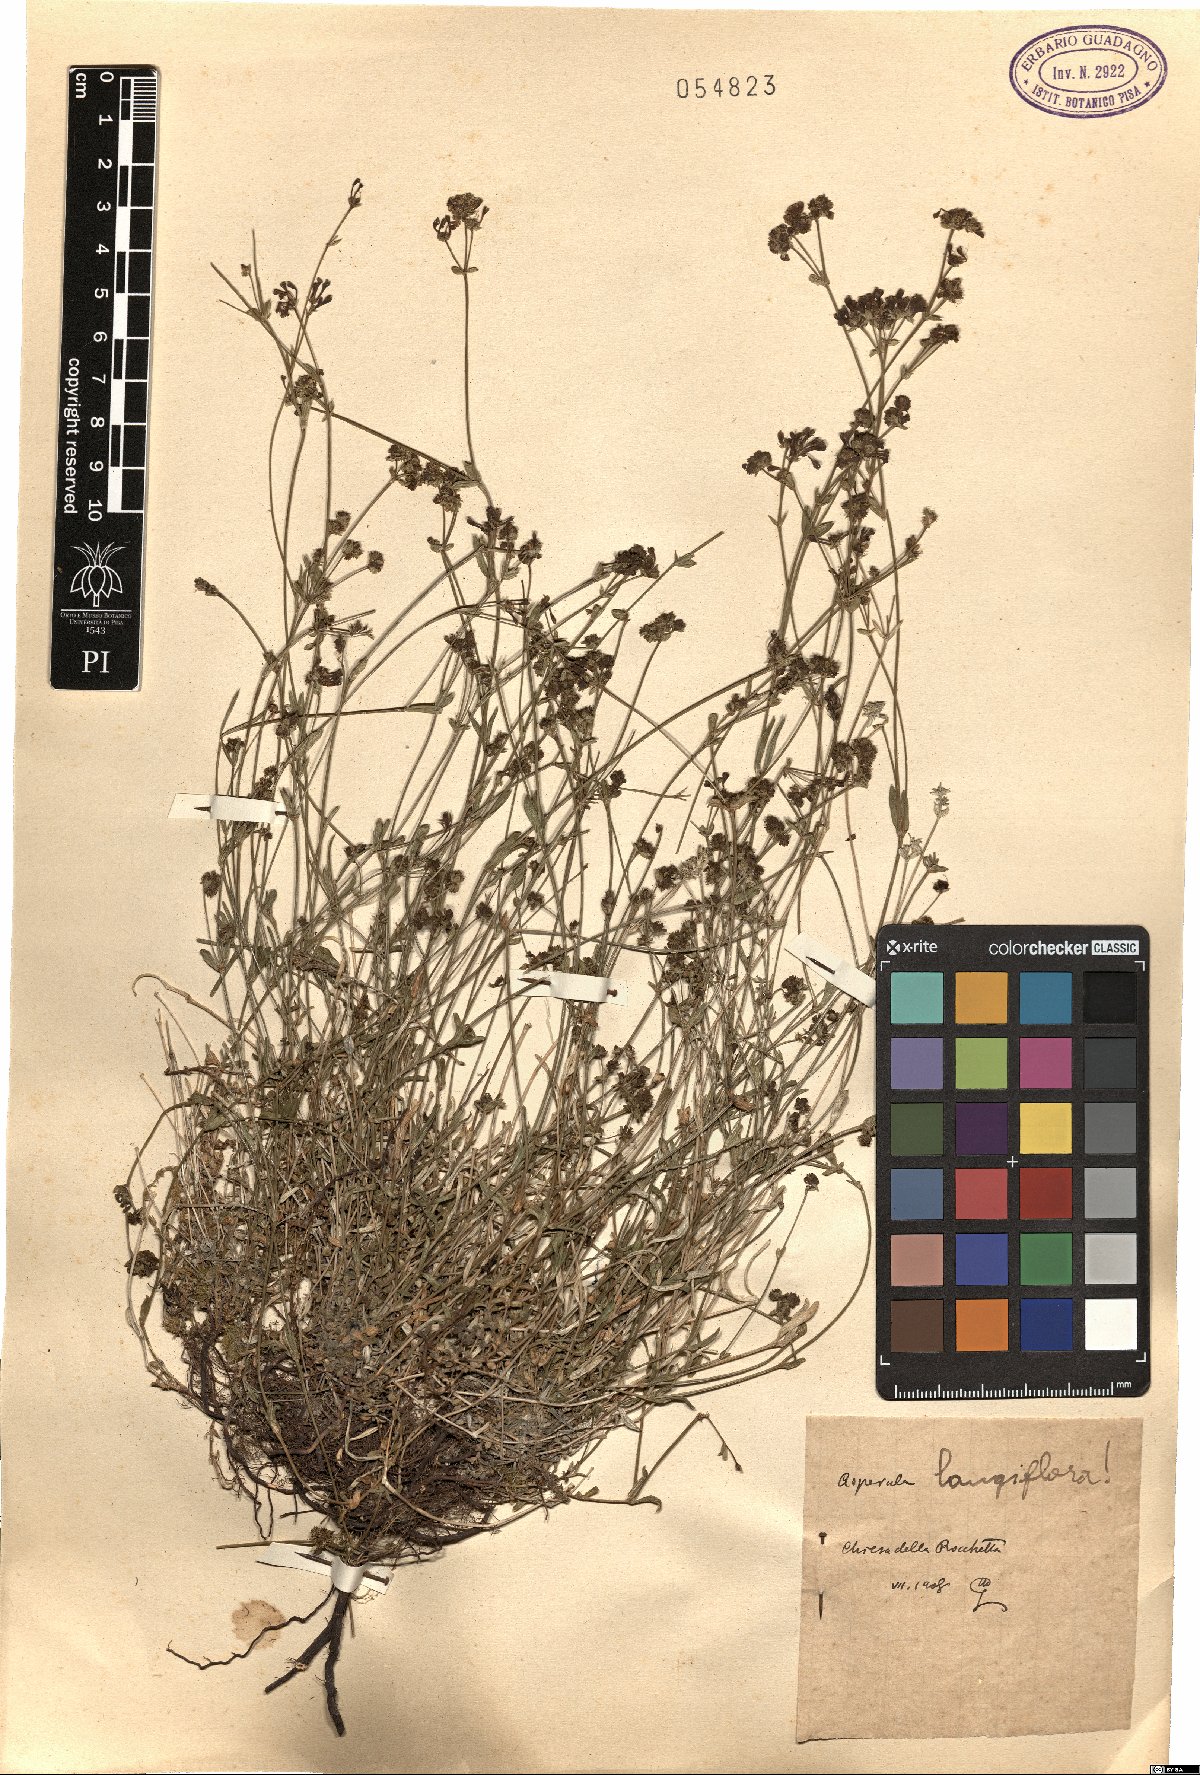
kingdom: Plantae
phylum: Tracheophyta
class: Magnoliopsida
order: Gentianales
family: Rubiaceae
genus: Cynanchica
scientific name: Cynanchica aristata
